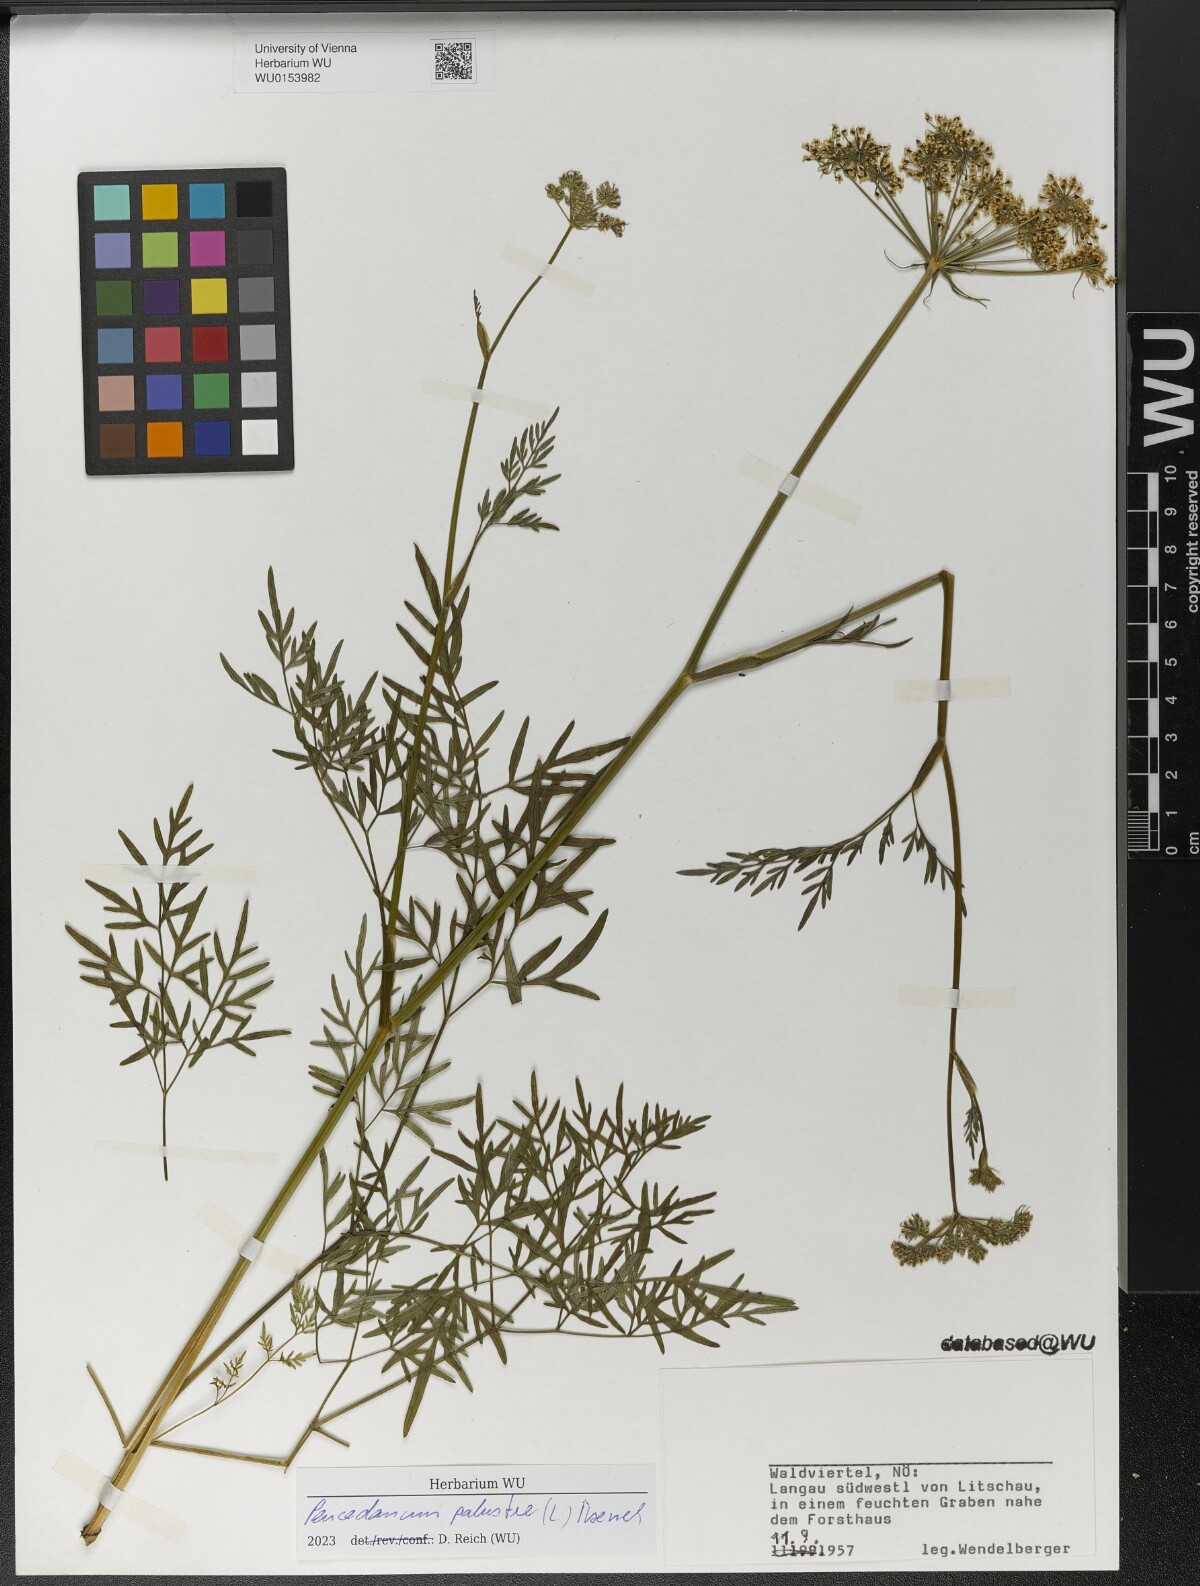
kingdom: Plantae
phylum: Tracheophyta
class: Magnoliopsida
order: Apiales
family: Apiaceae
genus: Thysselinum
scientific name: Thysselinum palustre
